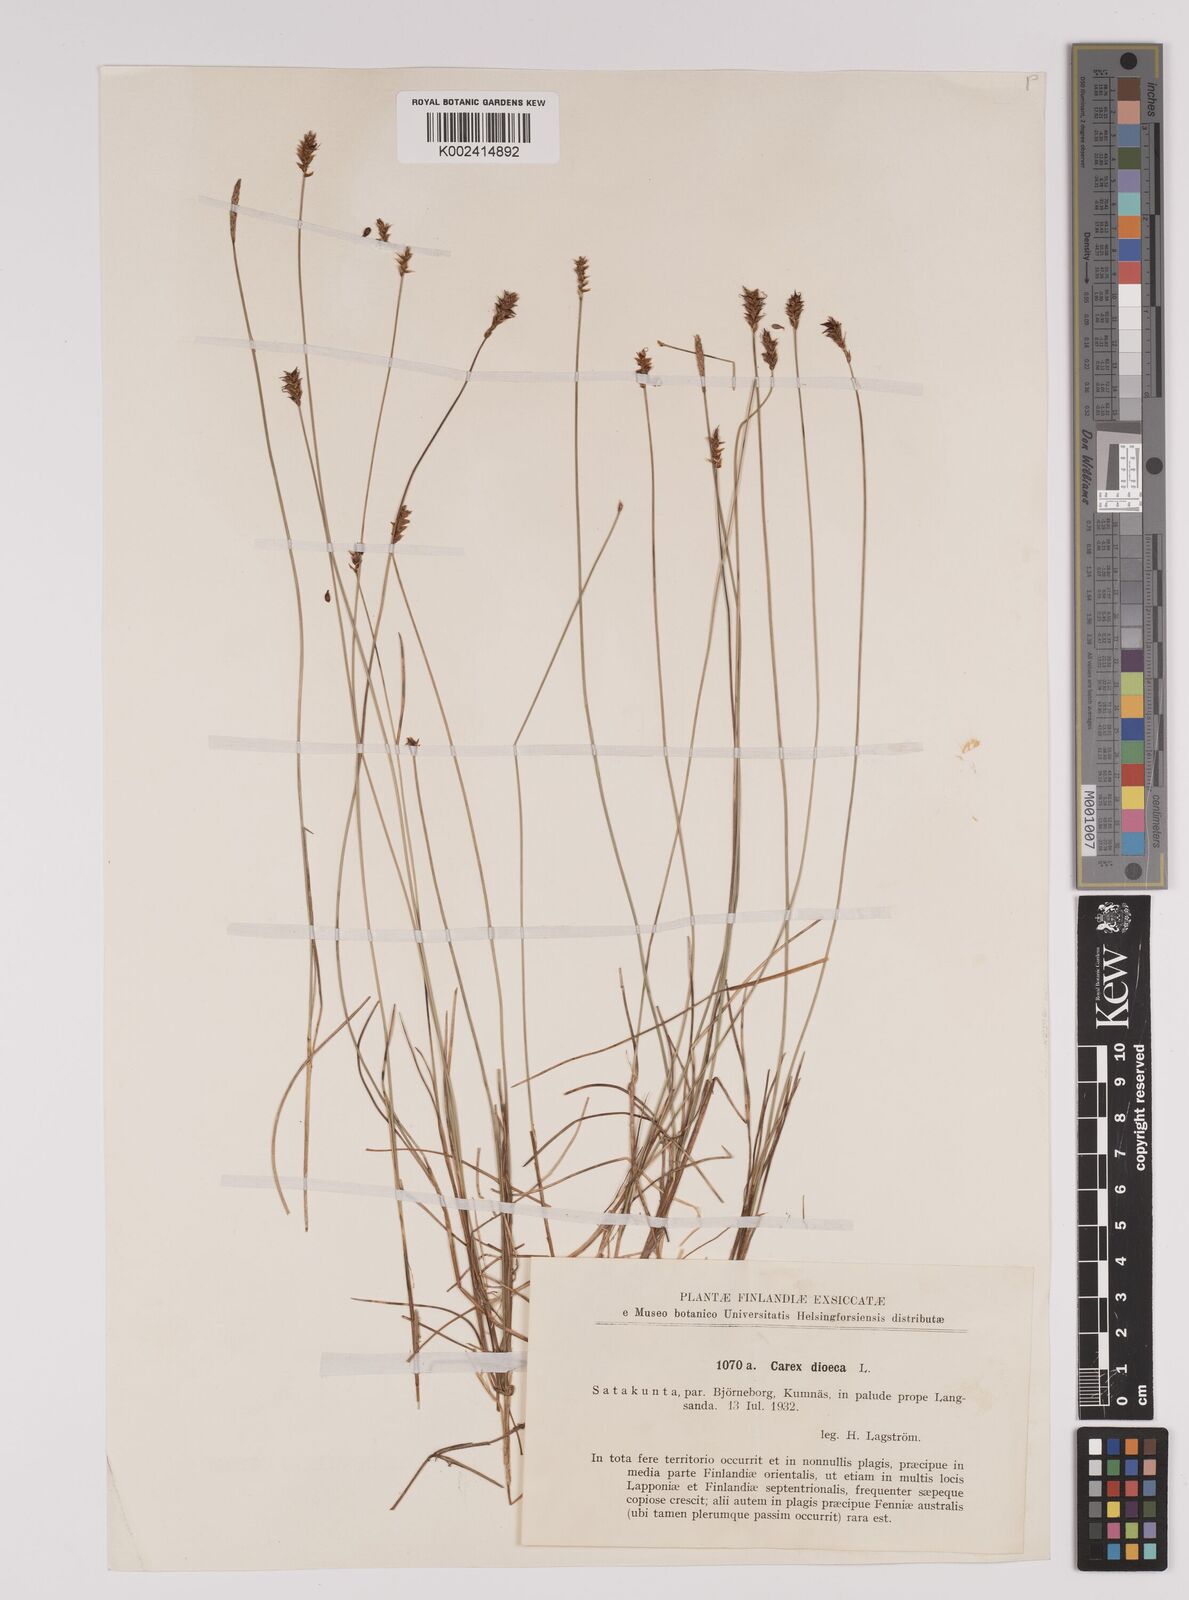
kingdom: Plantae
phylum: Tracheophyta
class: Liliopsida
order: Poales
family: Cyperaceae
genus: Carex
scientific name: Carex dioica
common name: Dioecious sedge
